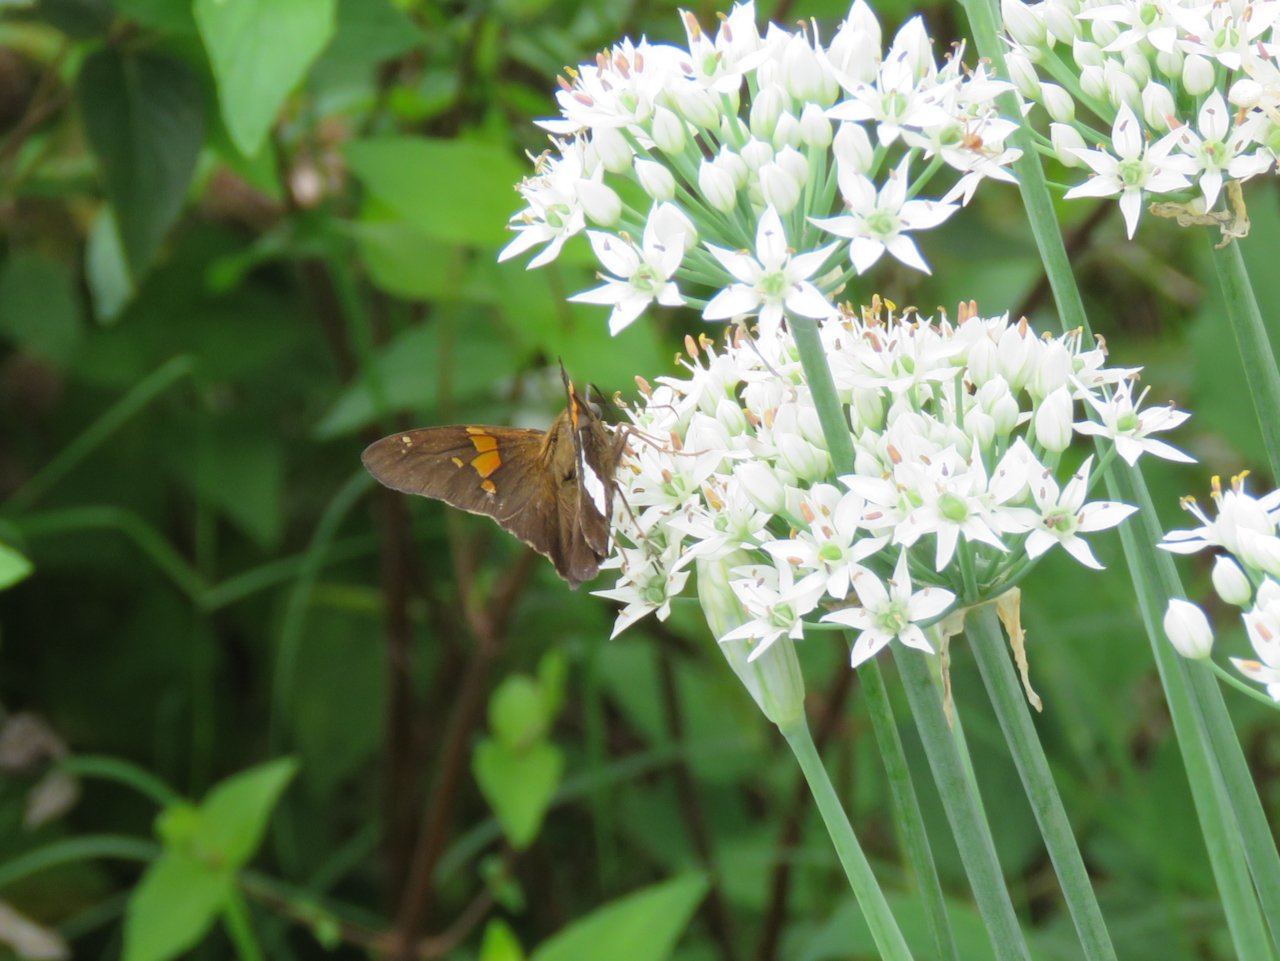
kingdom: Animalia
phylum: Arthropoda
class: Insecta
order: Lepidoptera
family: Hesperiidae
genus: Epargyreus
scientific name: Epargyreus clarus
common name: Silver-spotted Skipper
